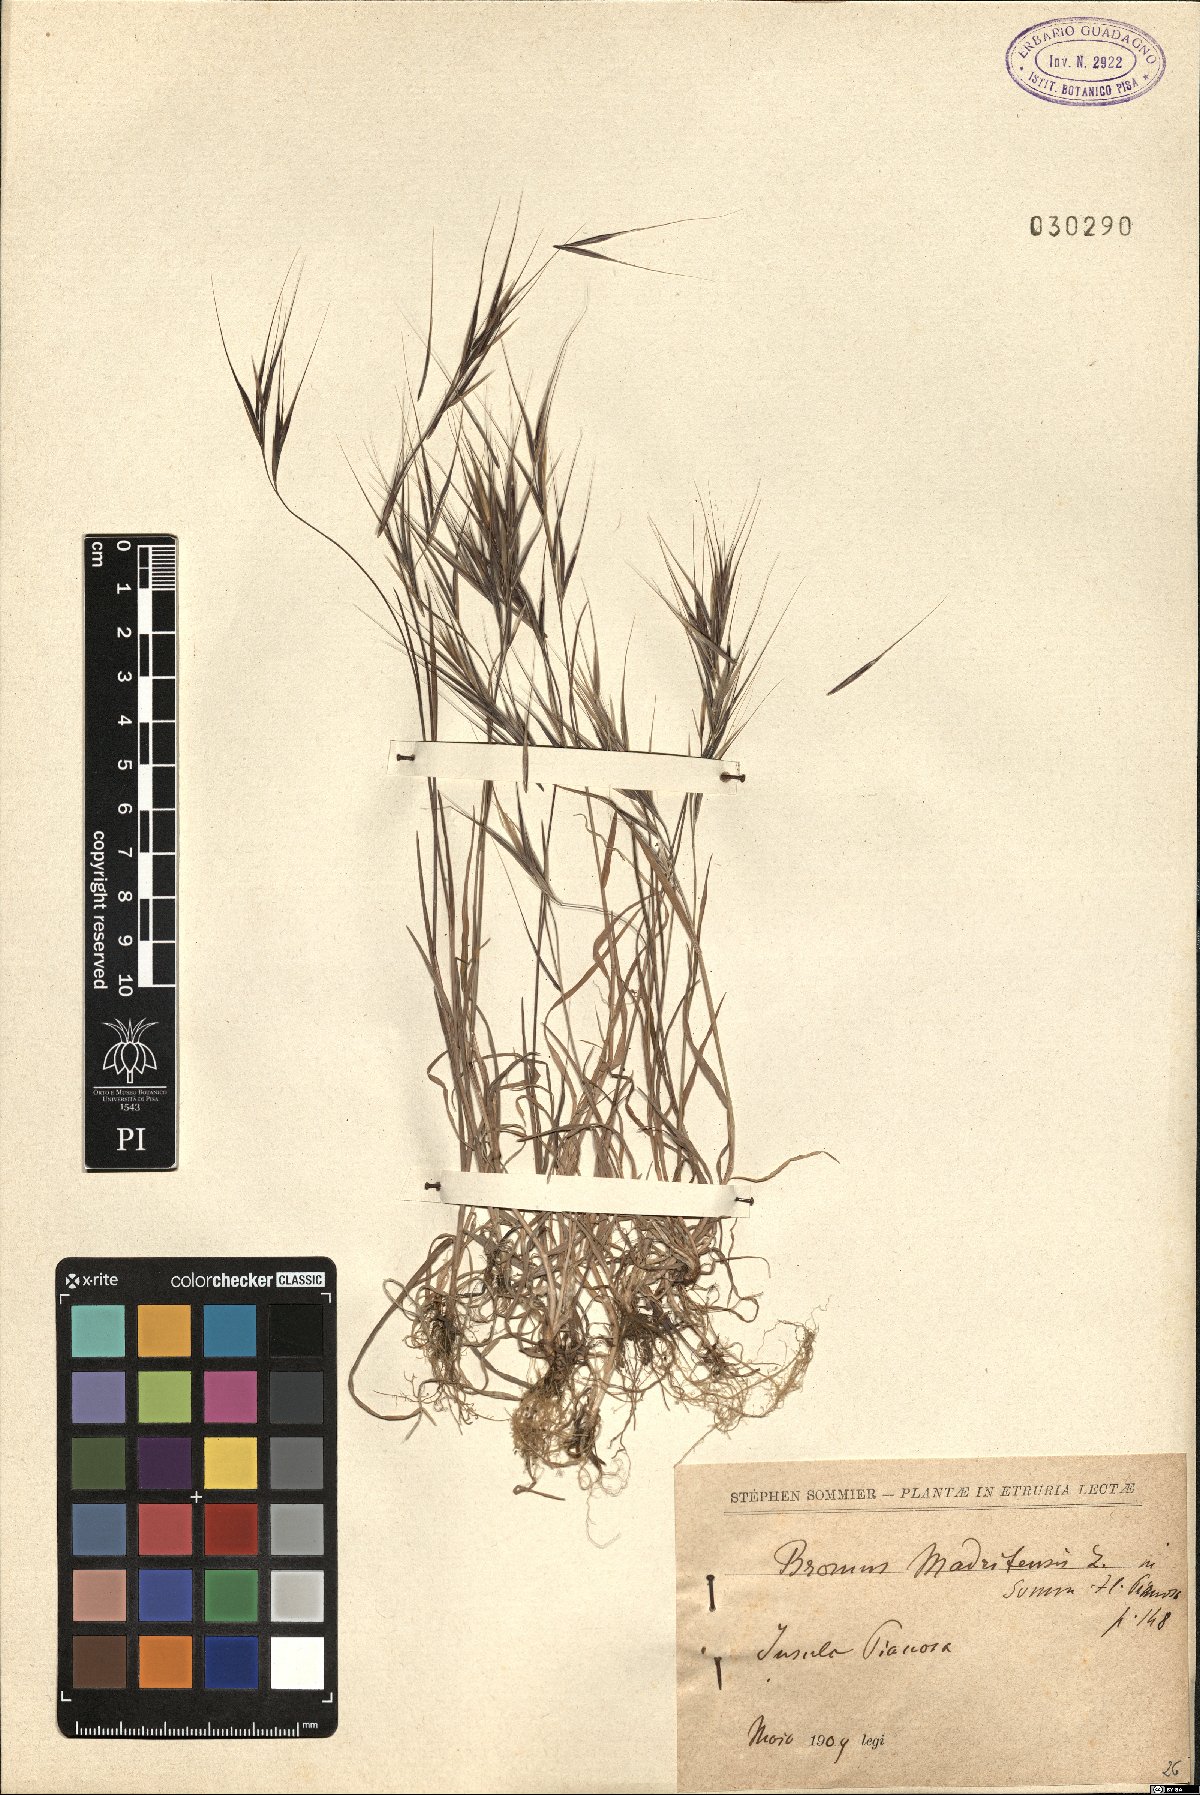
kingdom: Plantae
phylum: Tracheophyta
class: Liliopsida
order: Poales
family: Poaceae
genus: Bromus
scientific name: Bromus madritensis
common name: Compact brome
